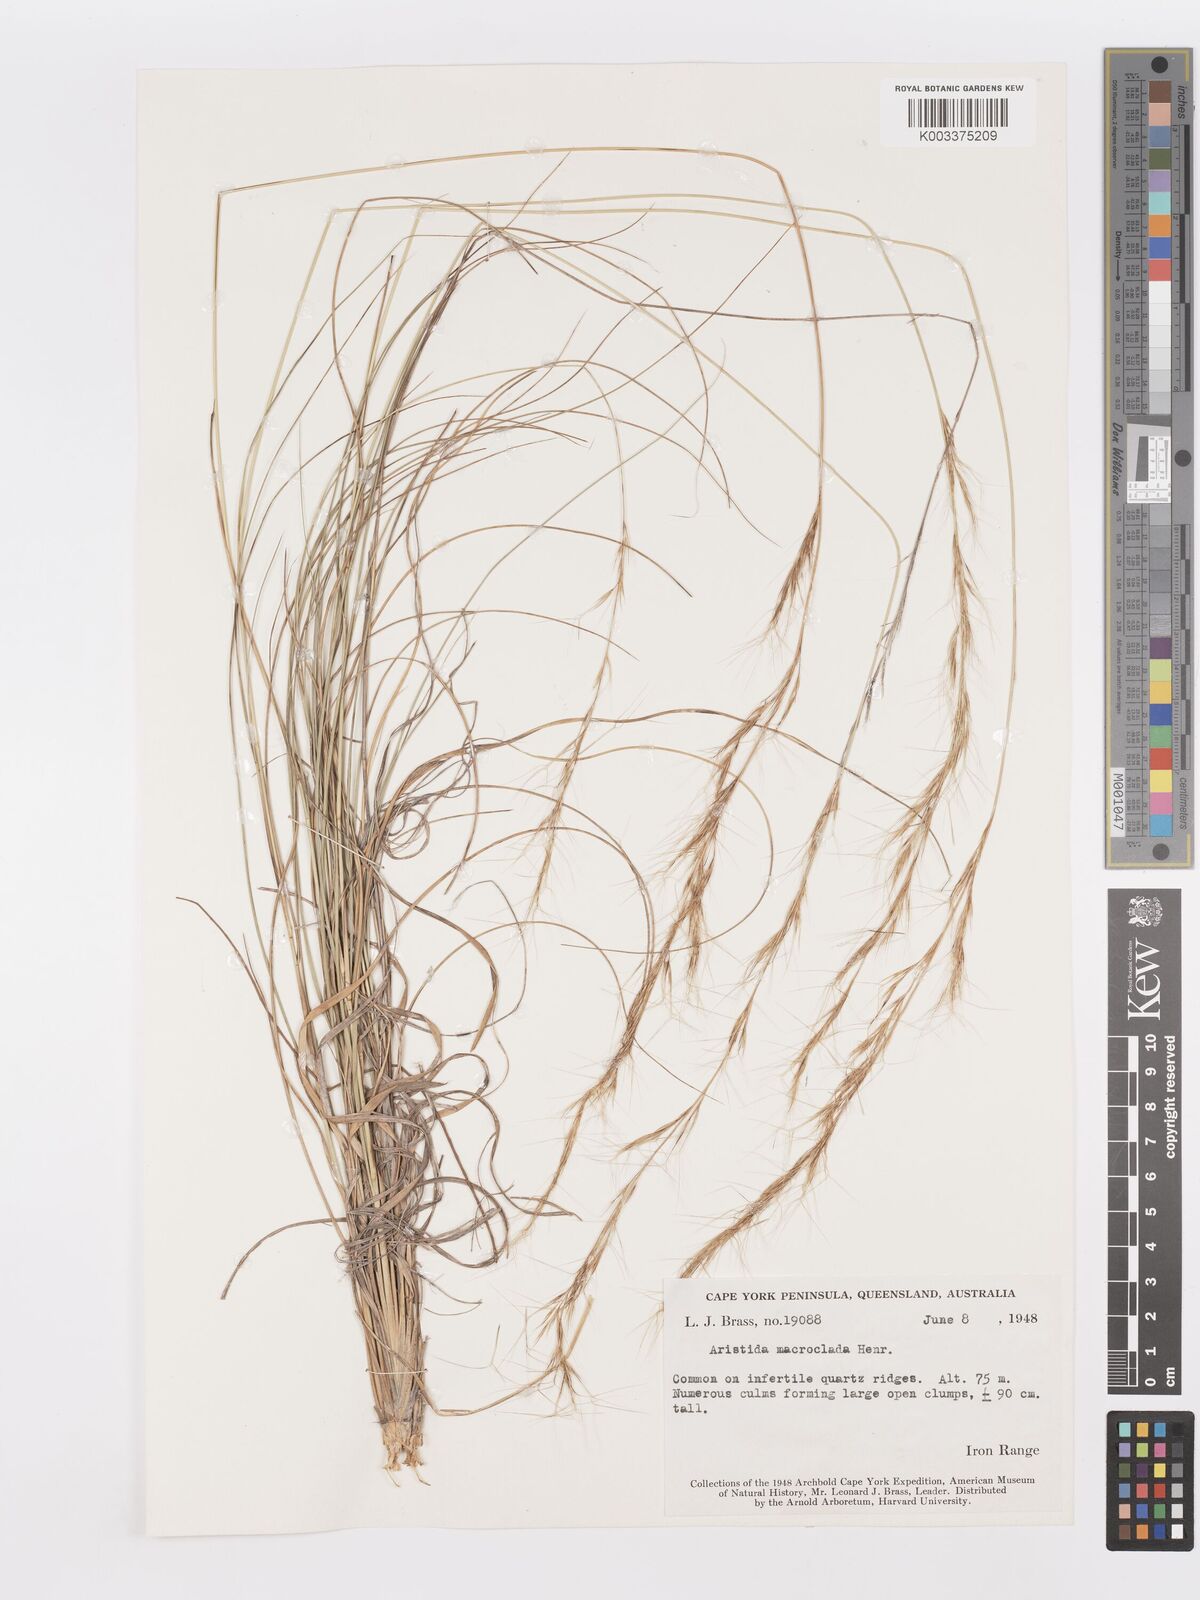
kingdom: Plantae
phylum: Tracheophyta
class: Liliopsida
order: Poales
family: Poaceae
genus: Aristida
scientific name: Aristida macroclada
